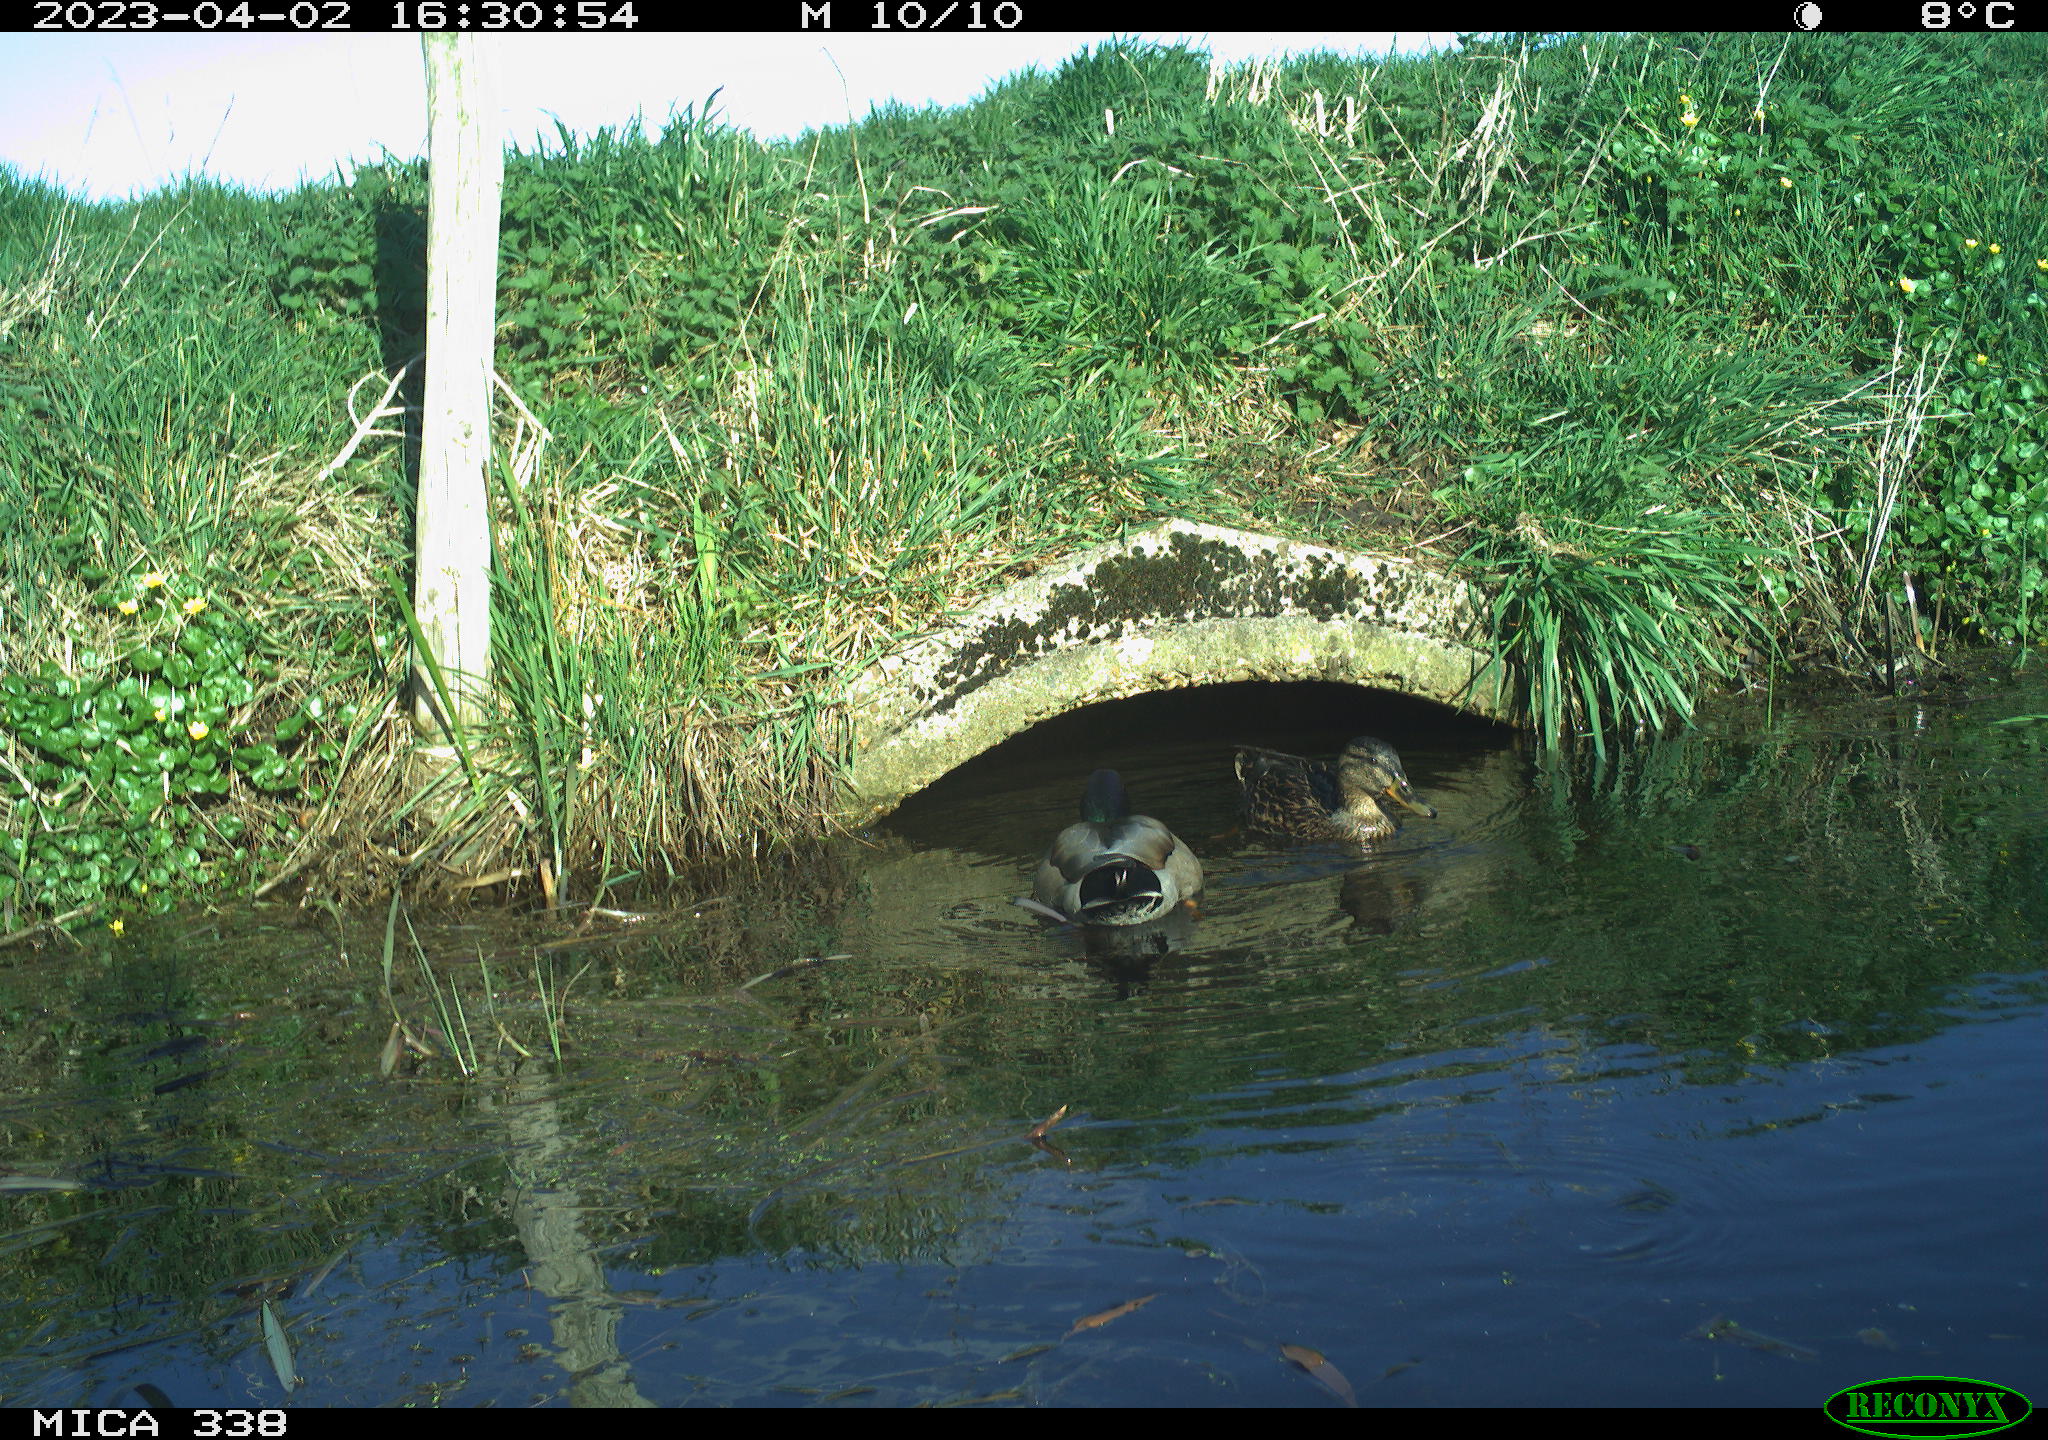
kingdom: Animalia
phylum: Chordata
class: Aves
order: Anseriformes
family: Anatidae
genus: Anas
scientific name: Anas platyrhynchos
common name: Mallard
